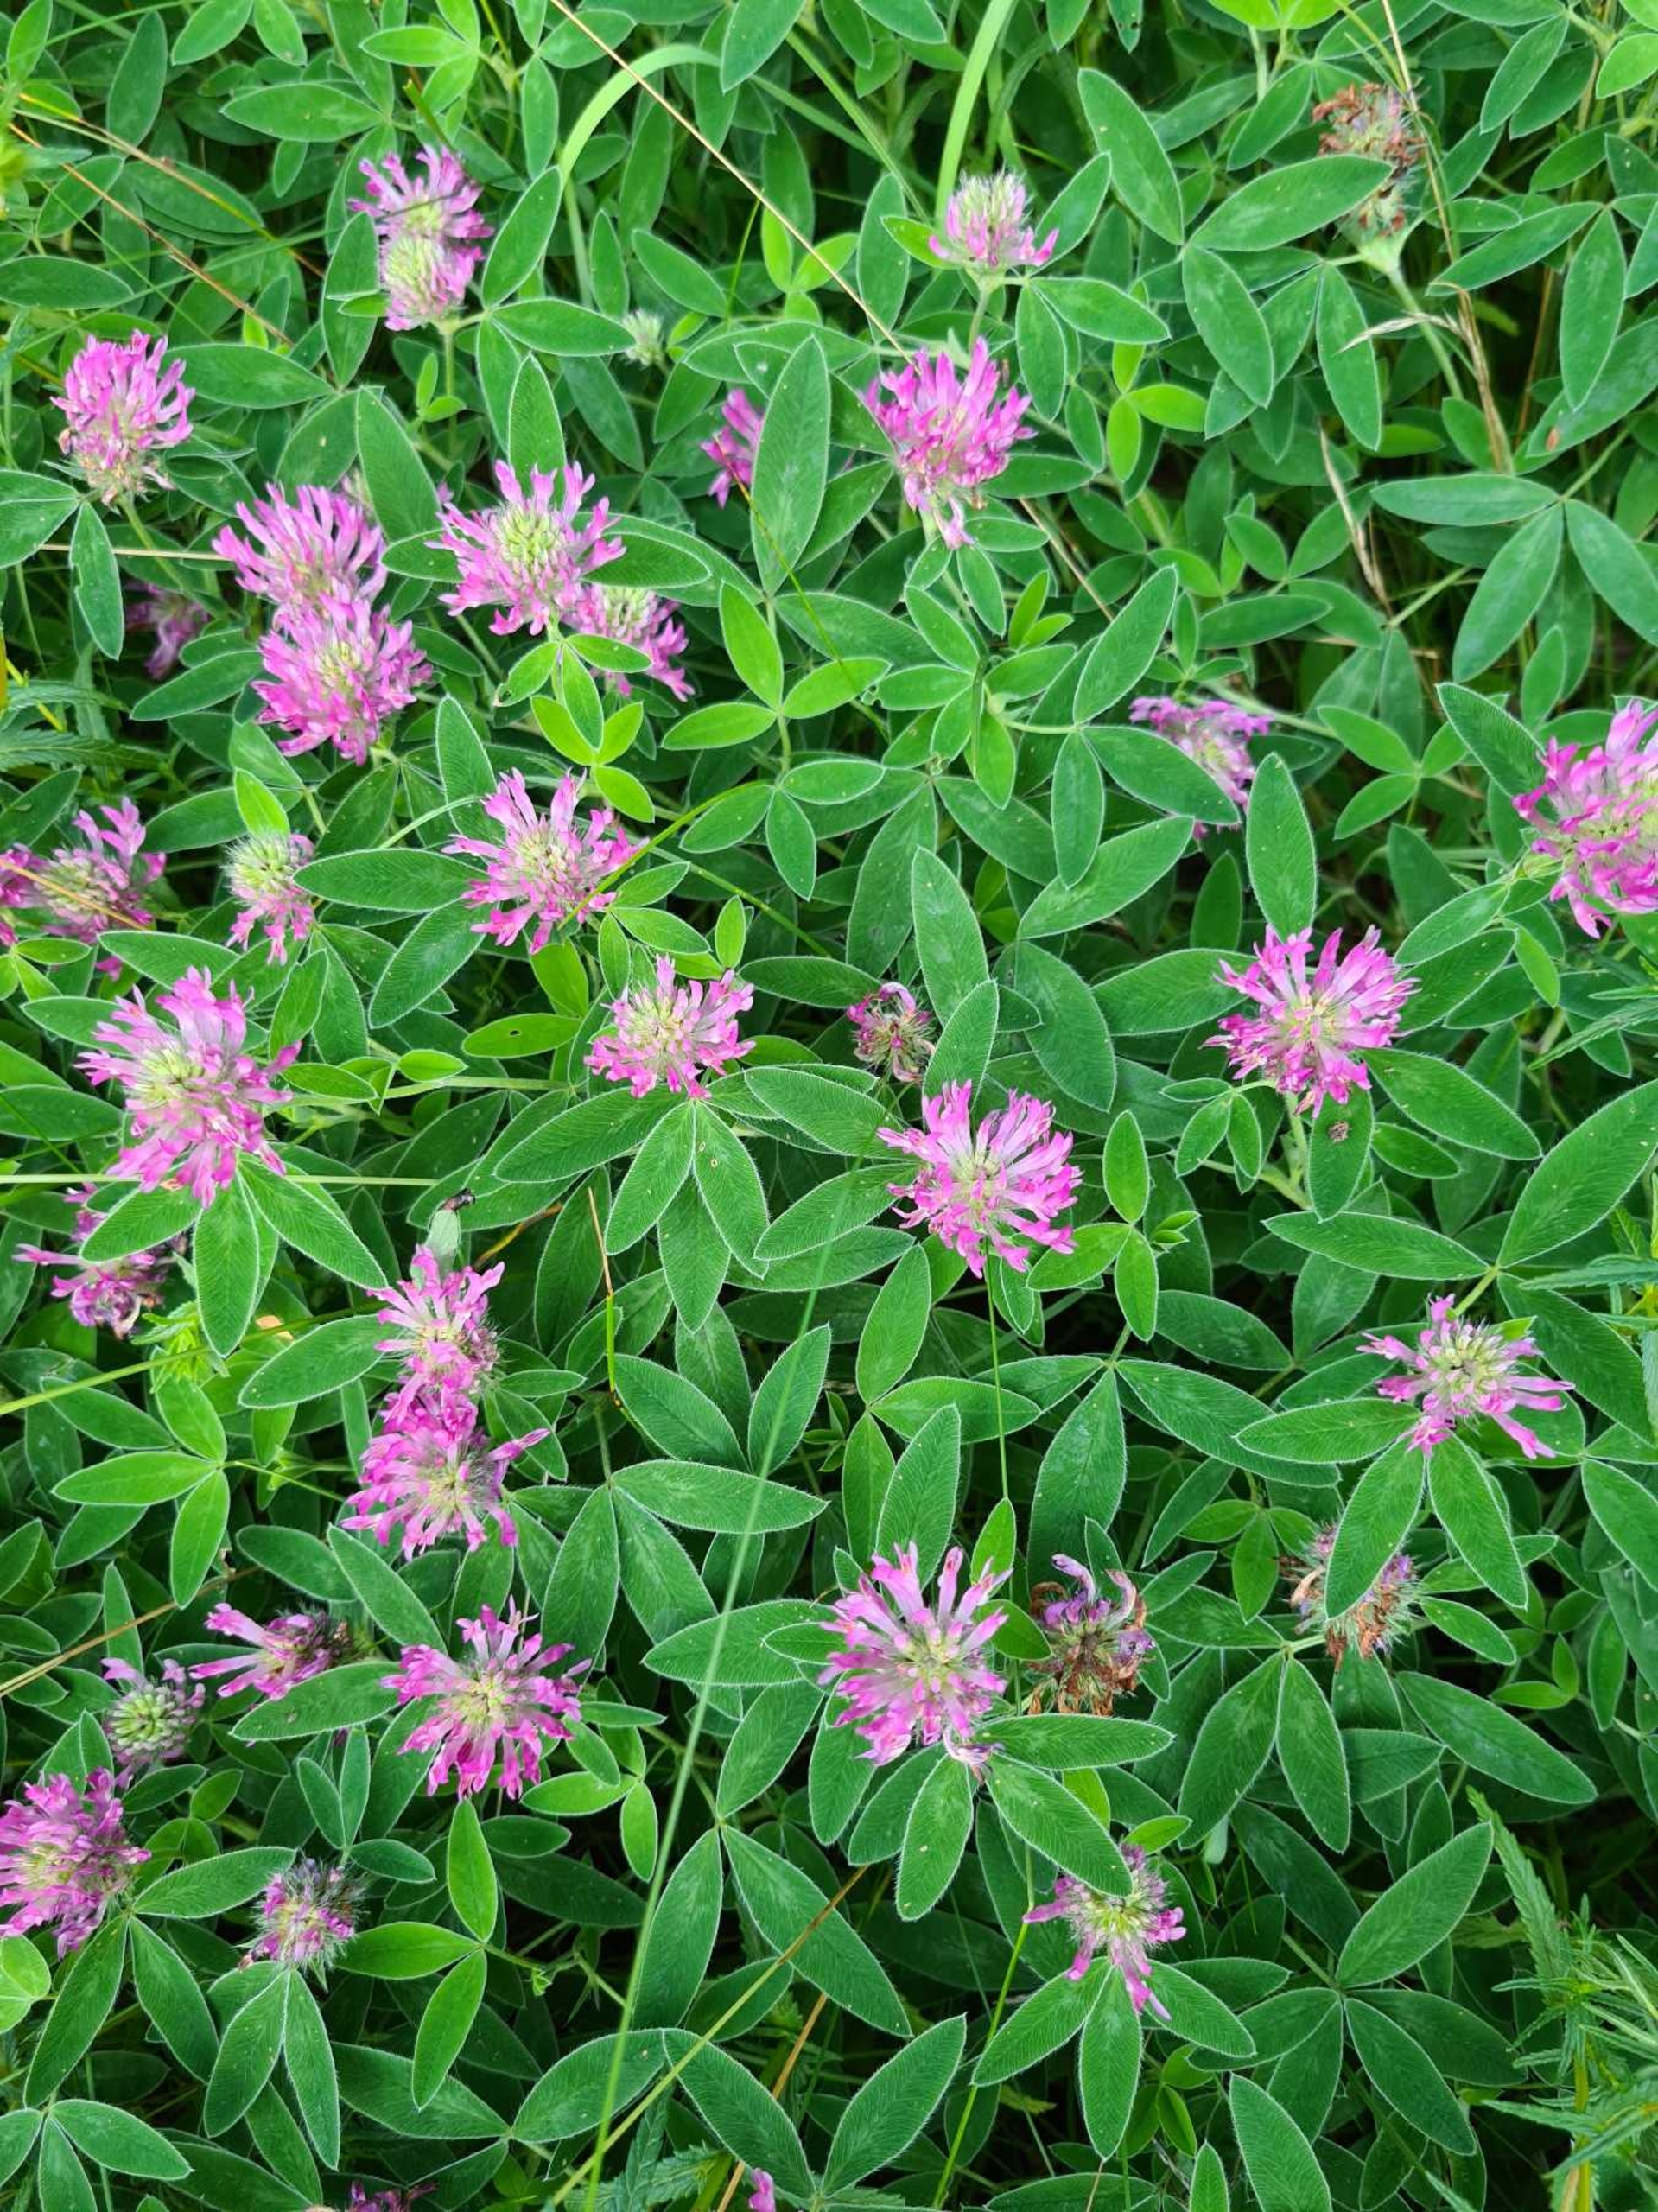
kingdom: Plantae
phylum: Tracheophyta
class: Magnoliopsida
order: Fabales
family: Fabaceae
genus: Trifolium
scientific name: Trifolium medium
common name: Bugtet kløver
